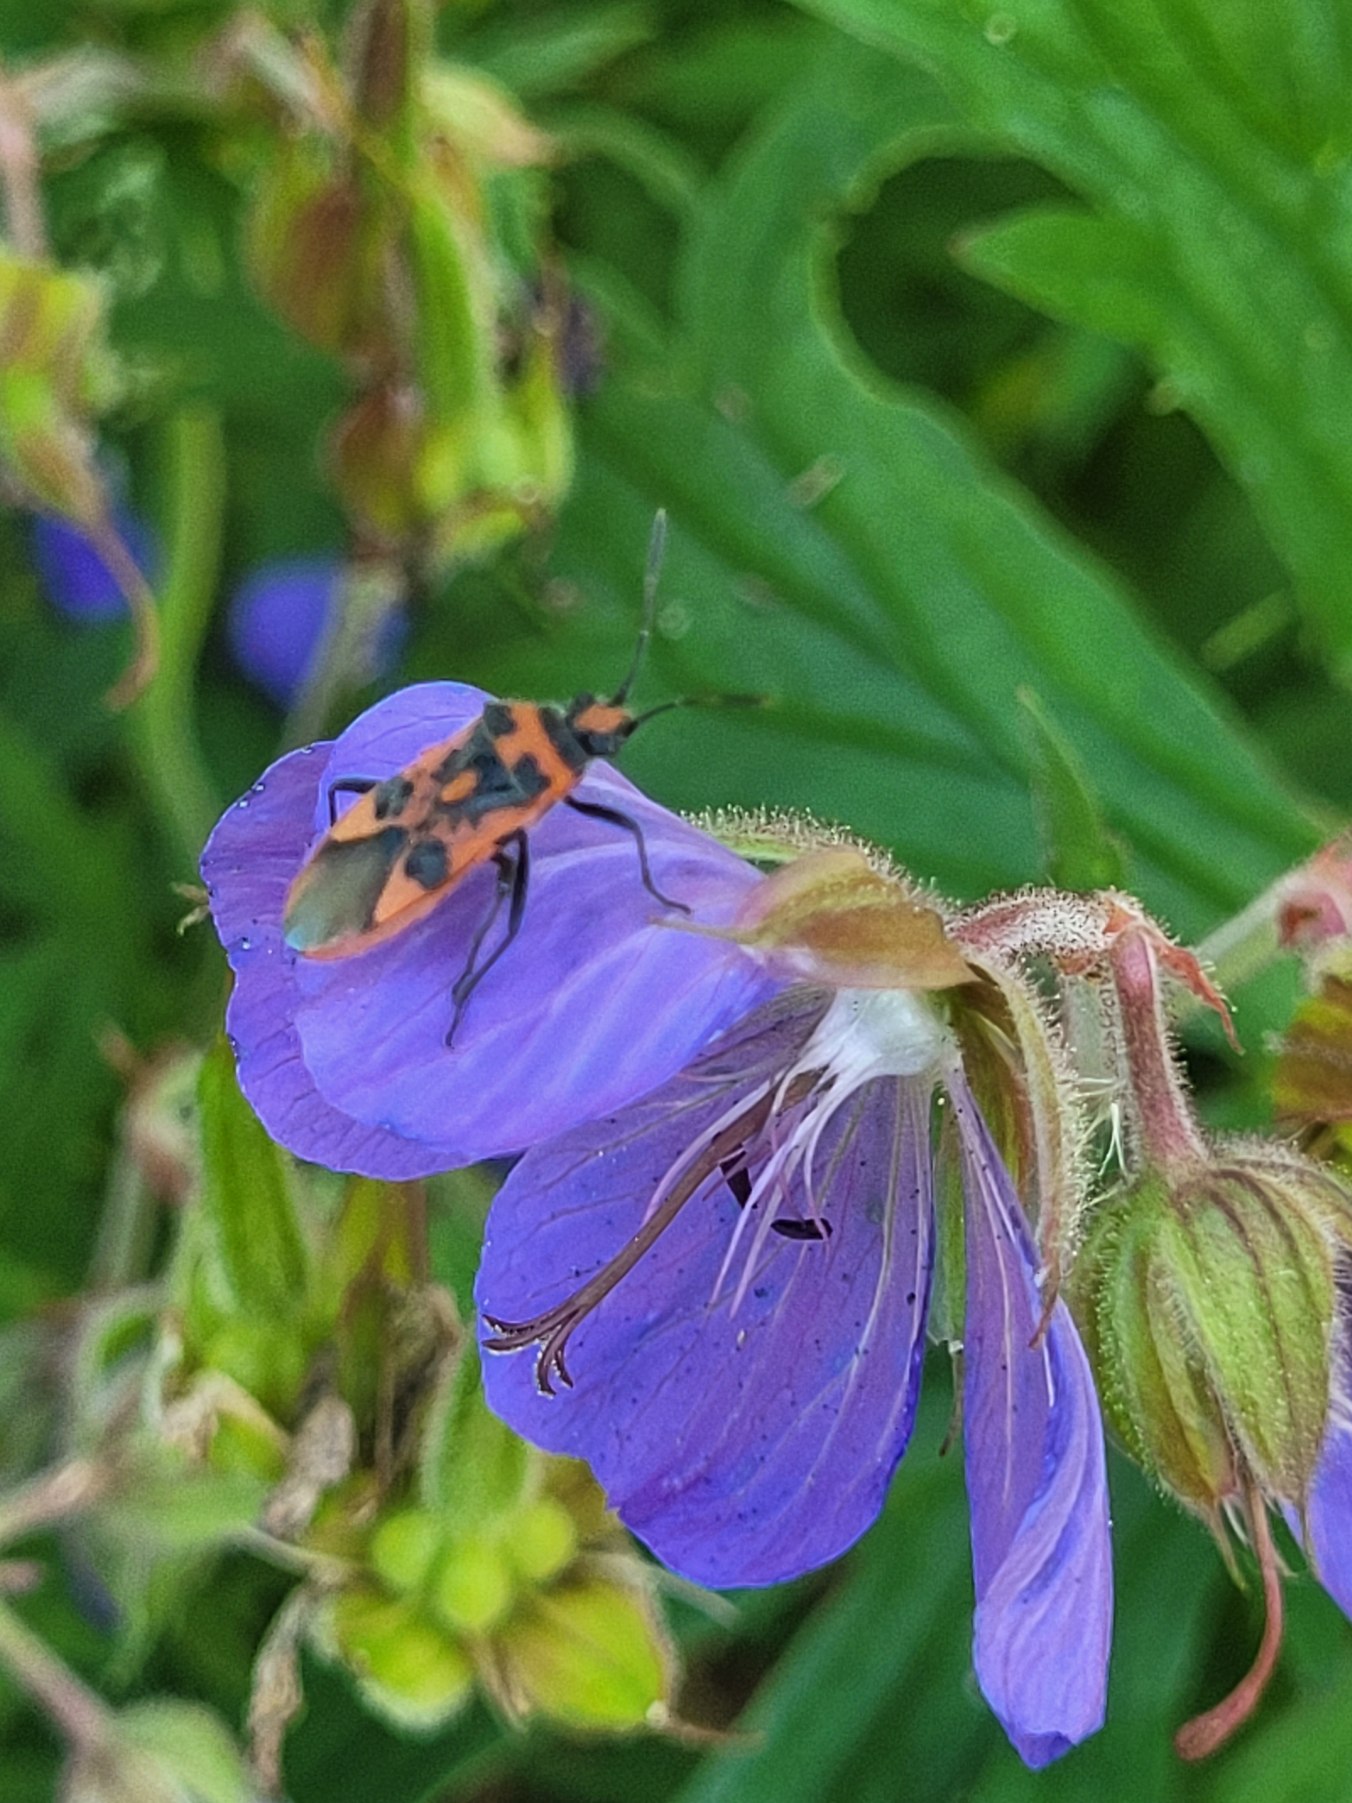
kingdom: Animalia
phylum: Arthropoda
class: Insecta
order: Hemiptera
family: Rhopalidae
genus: Corizus
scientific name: Corizus hyoscyami
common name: Rød kanttæge
